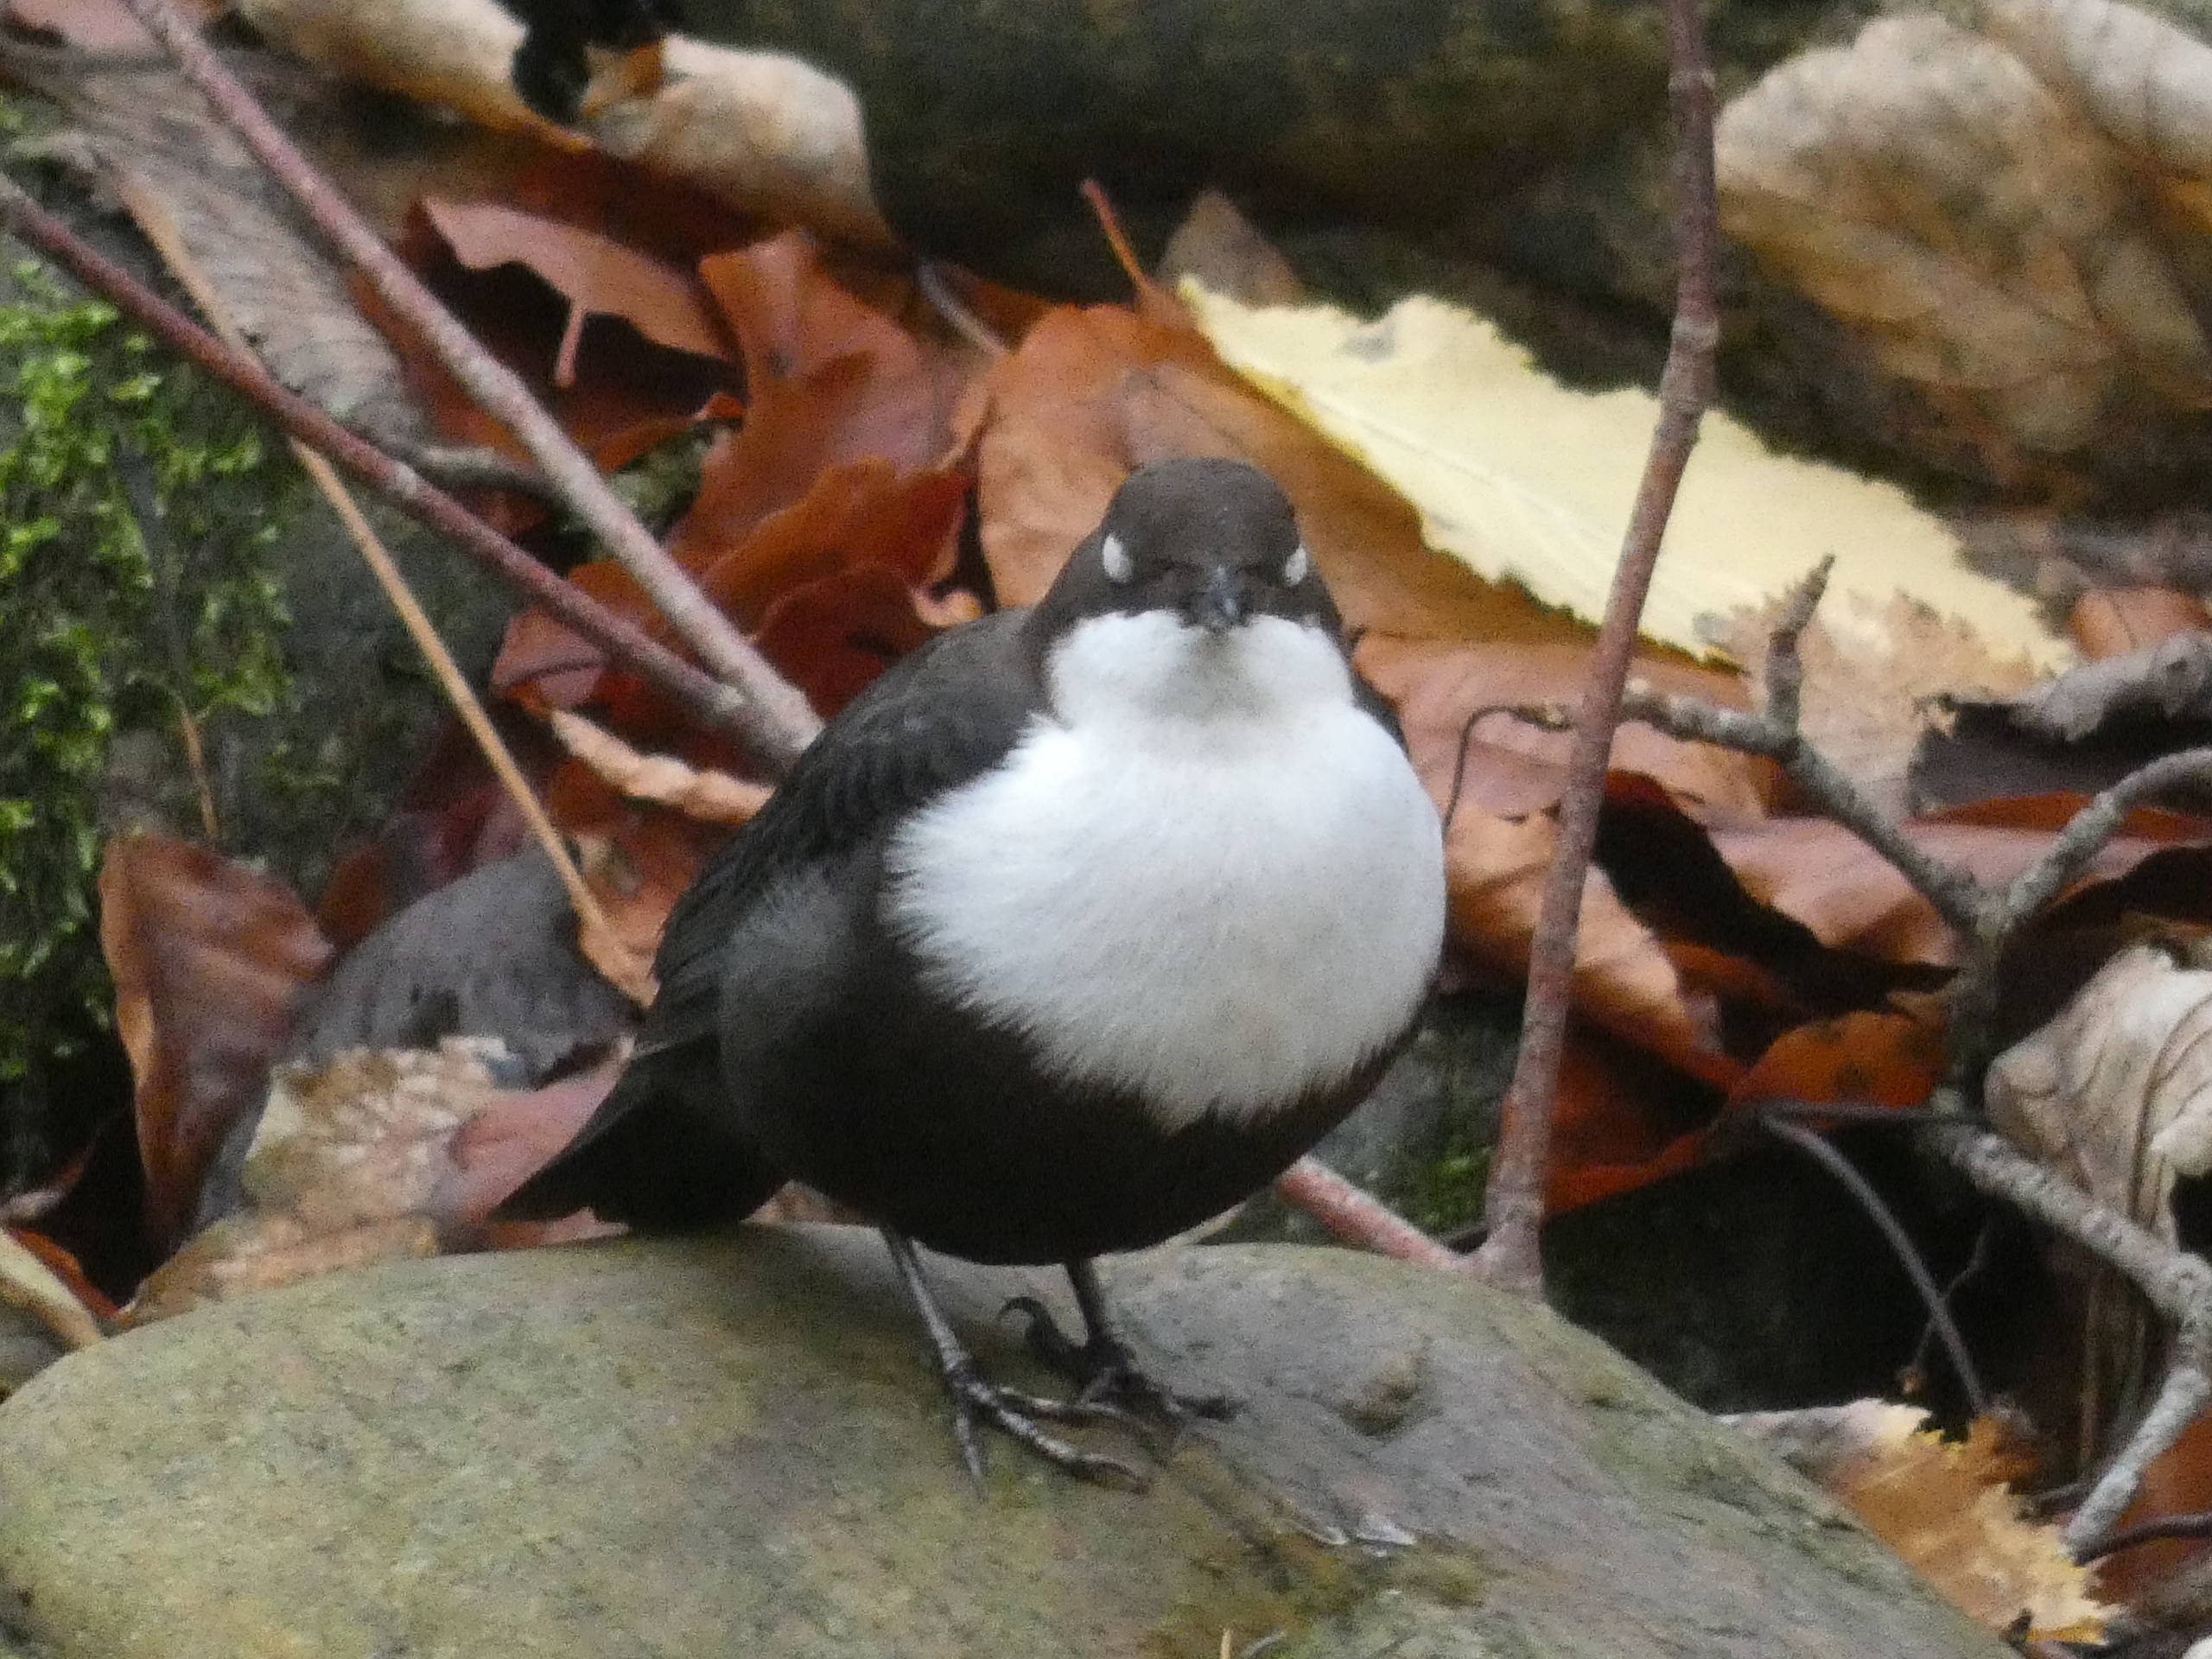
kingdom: Animalia
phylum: Chordata
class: Aves
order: Passeriformes
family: Cinclidae
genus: Cinclus
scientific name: Cinclus cinclus
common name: Vandstær
